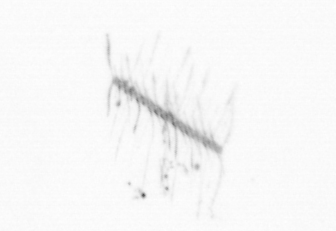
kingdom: Chromista
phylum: Ochrophyta
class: Bacillariophyceae
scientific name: Bacillariophyceae
